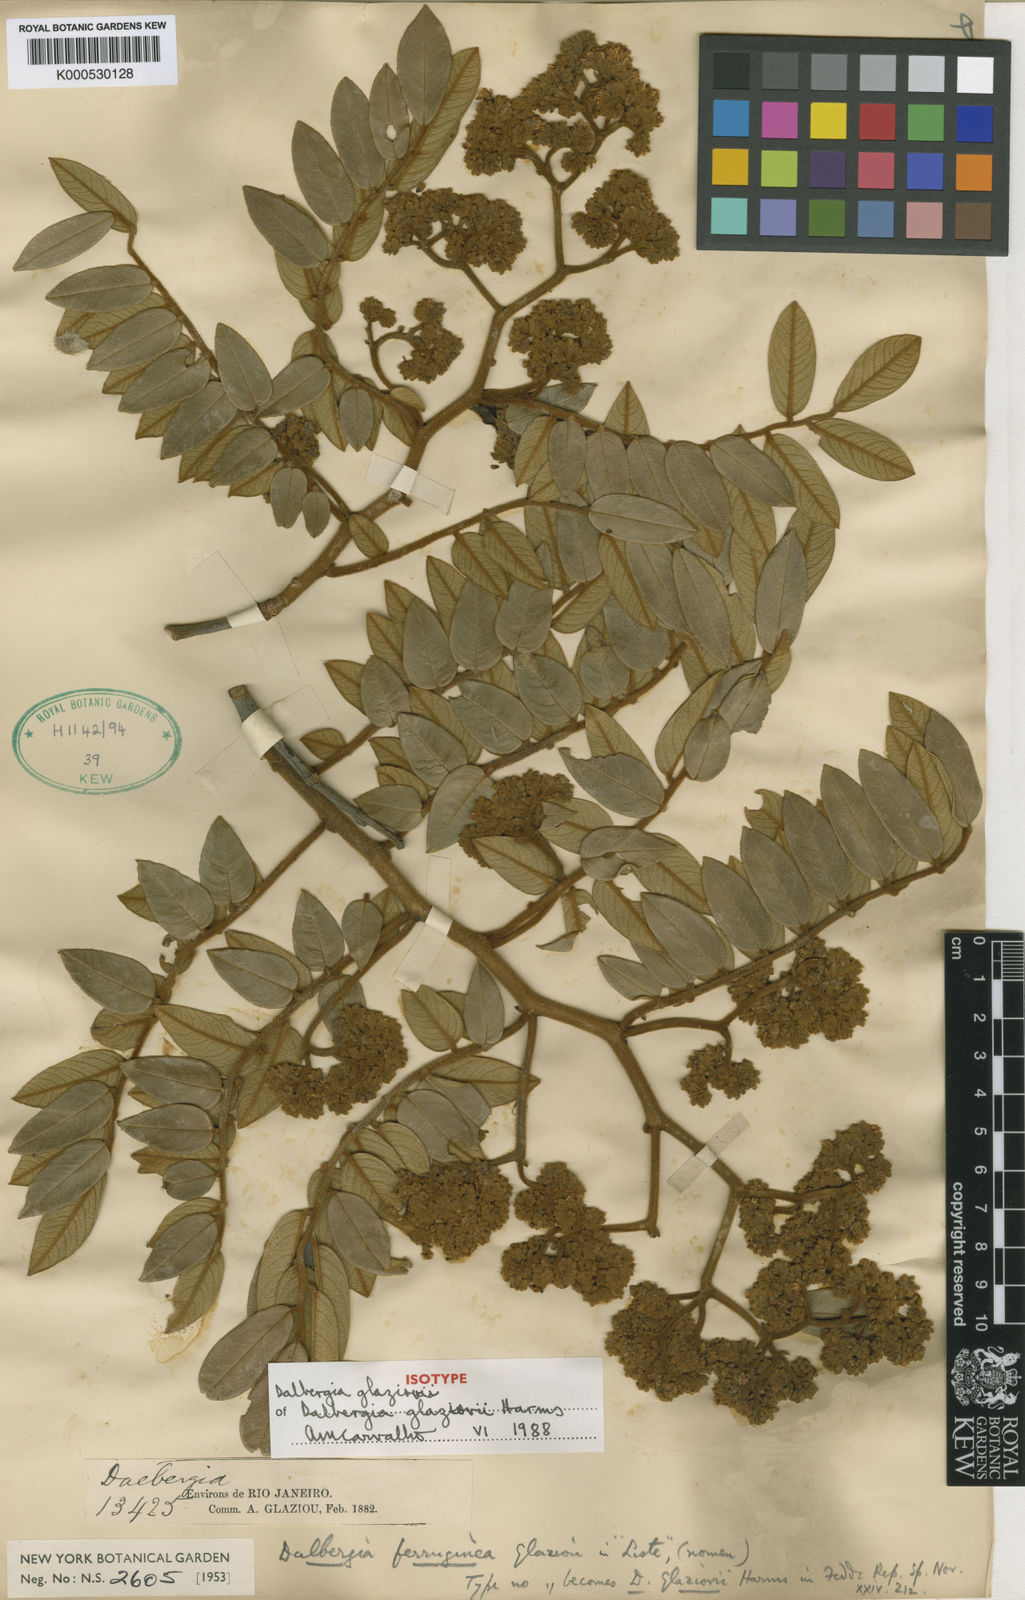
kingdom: Plantae
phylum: Tracheophyta
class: Magnoliopsida
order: Fabales
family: Fabaceae
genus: Dalbergia
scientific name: Dalbergia glaziovii
